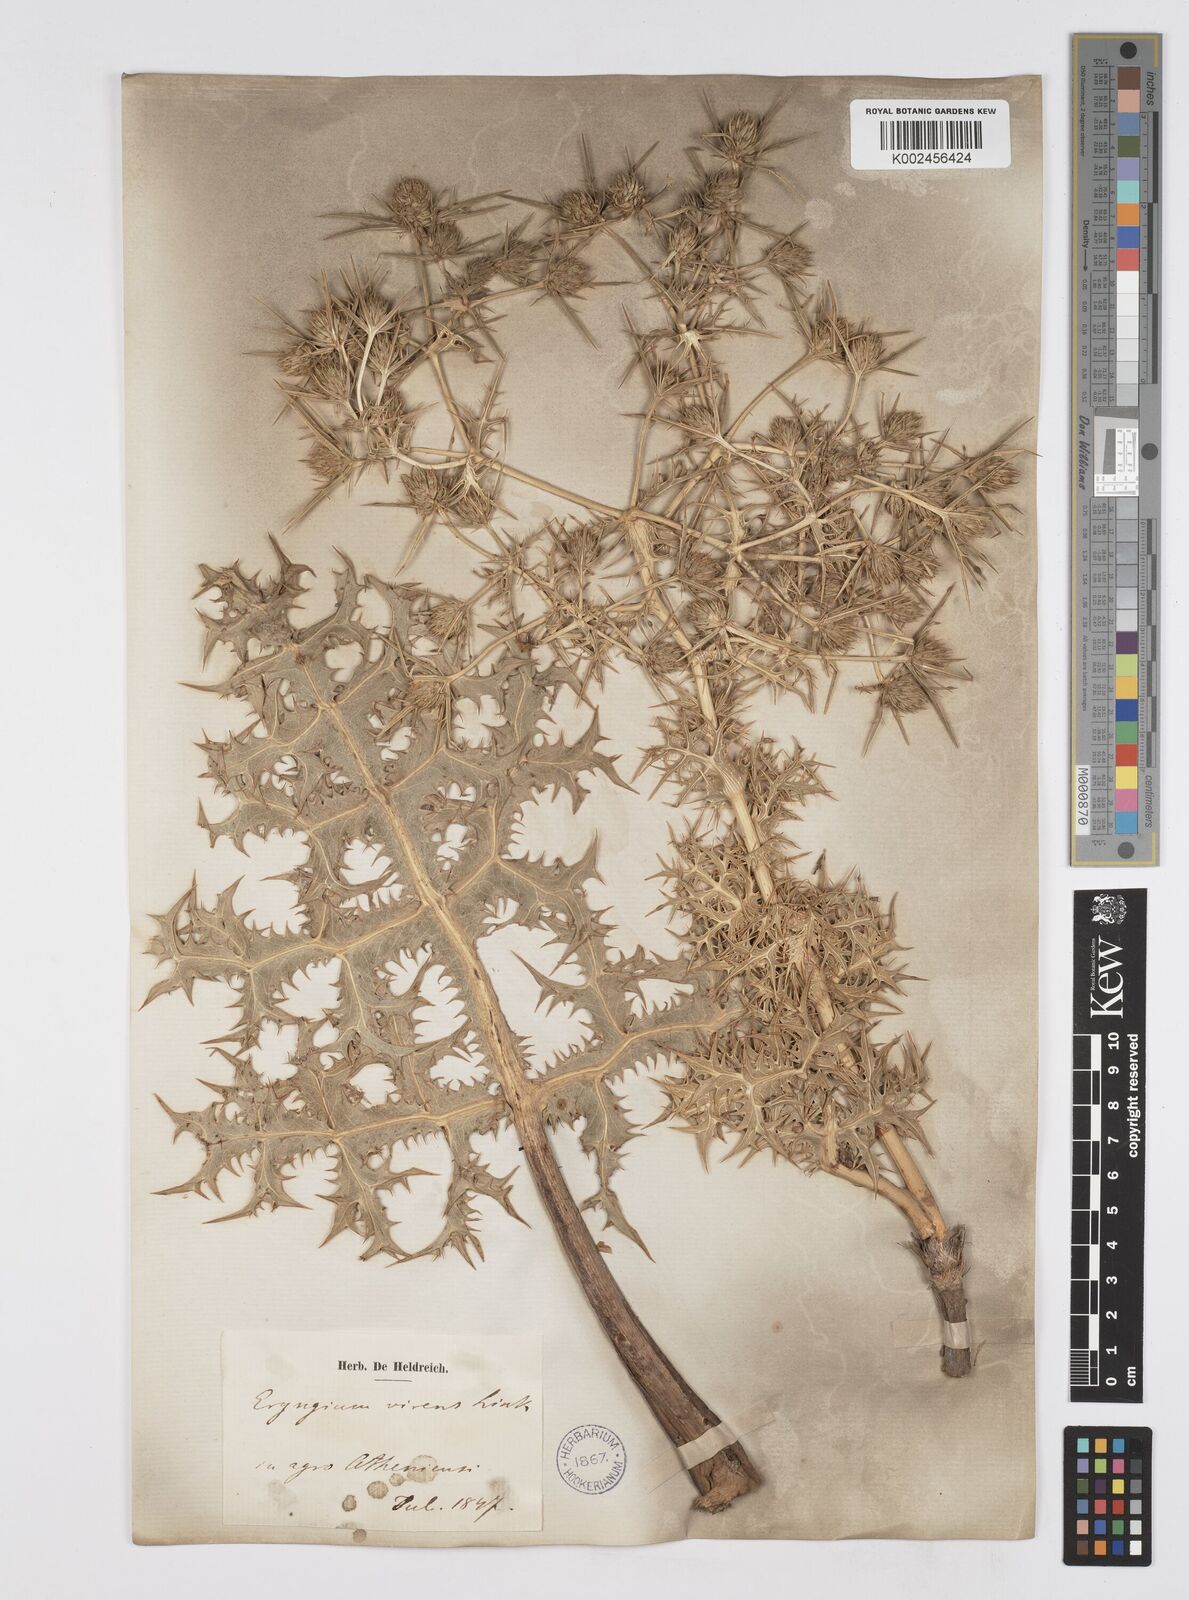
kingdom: Plantae
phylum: Tracheophyta
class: Magnoliopsida
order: Apiales
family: Apiaceae
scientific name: Apiaceae
